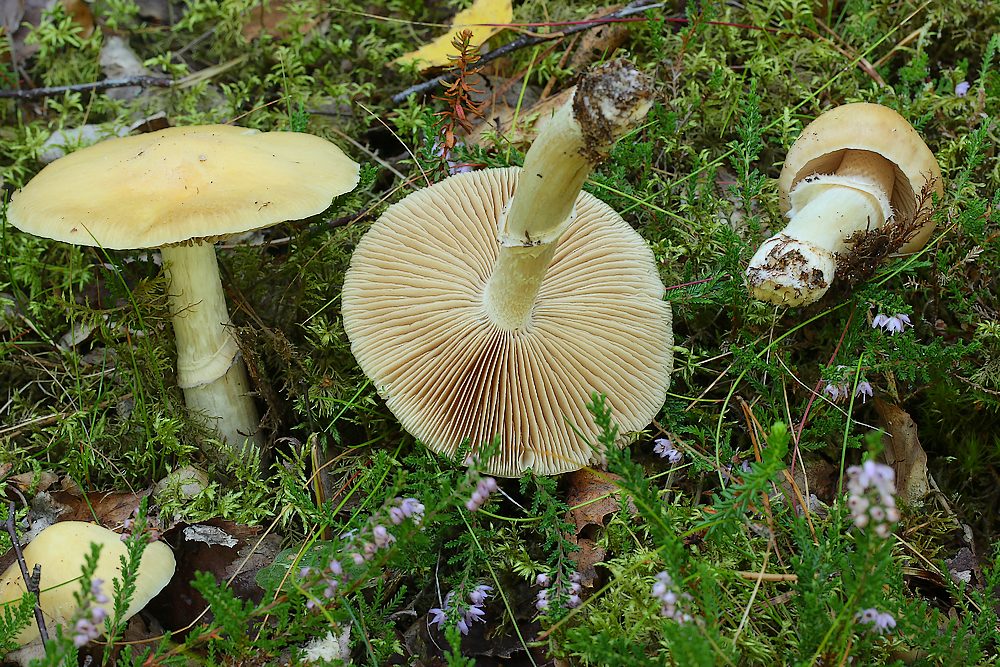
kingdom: Fungi
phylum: Basidiomycota
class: Agaricomycetes
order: Agaricales
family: Cortinariaceae
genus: Cortinarius
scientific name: Cortinarius caperatus
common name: klidhat
